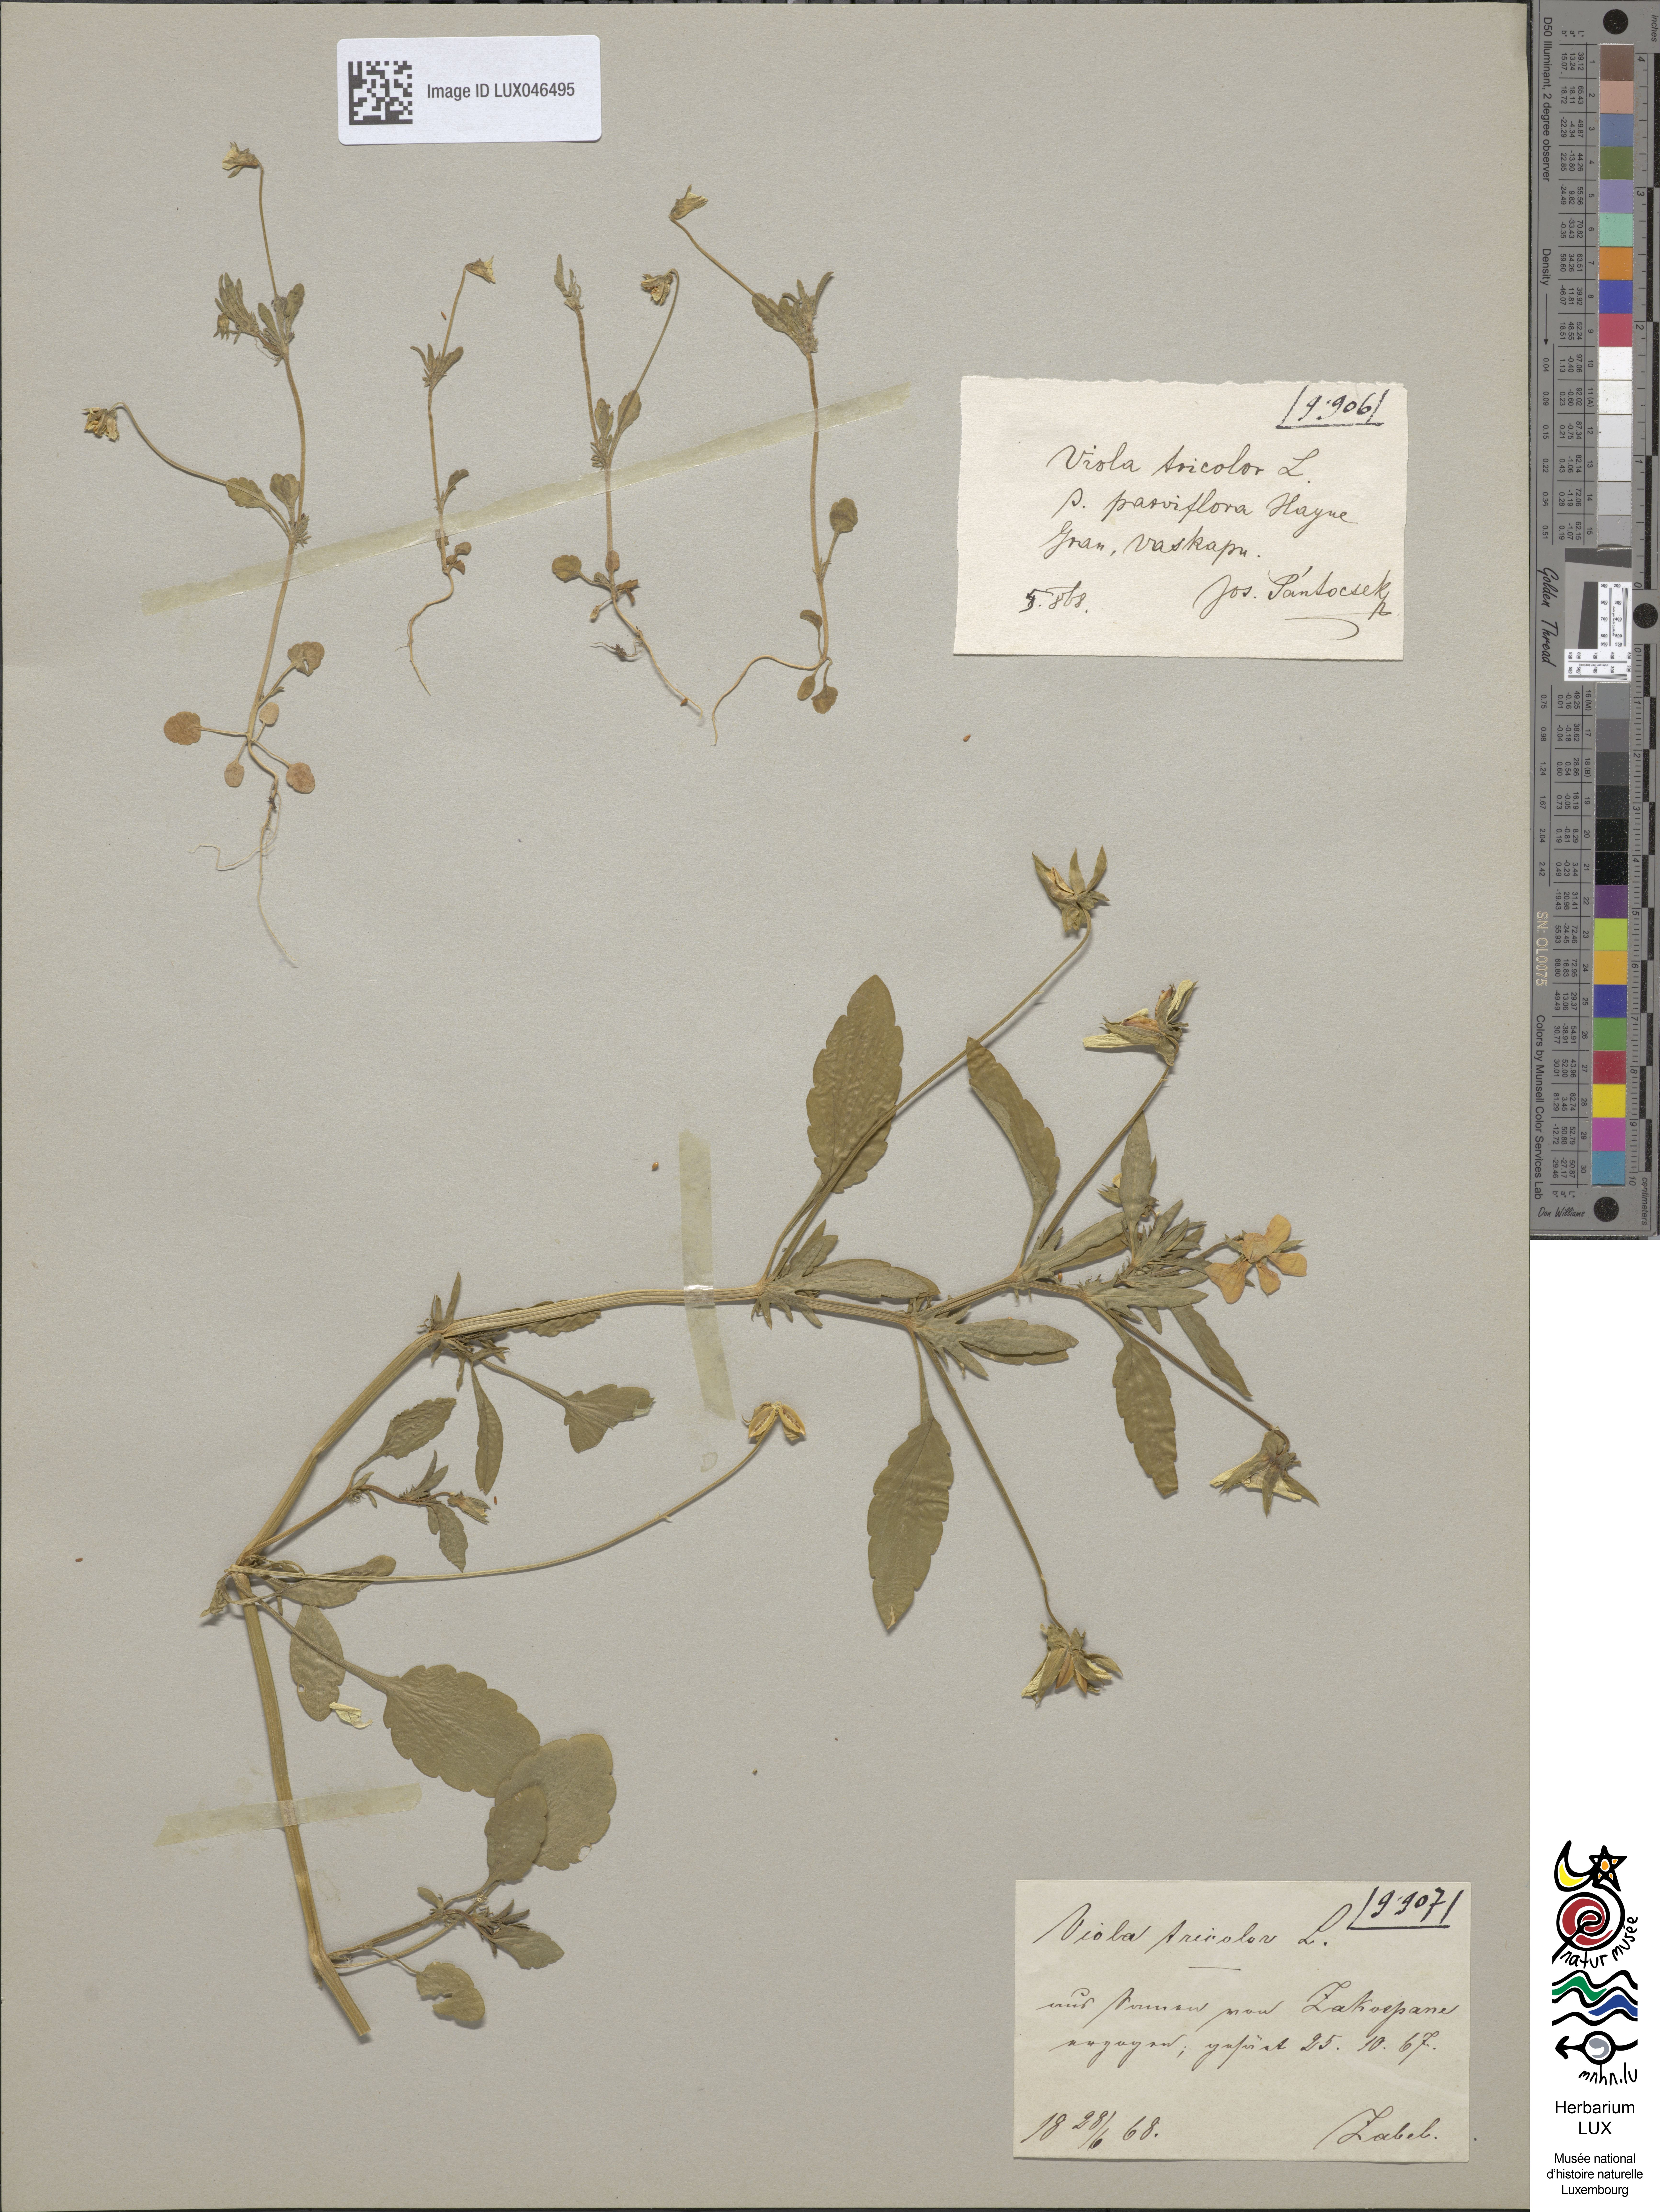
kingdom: Plantae
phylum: Tracheophyta
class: Magnoliopsida
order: Malpighiales
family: Violaceae
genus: Viola
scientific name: Viola tricolor
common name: Pansy
